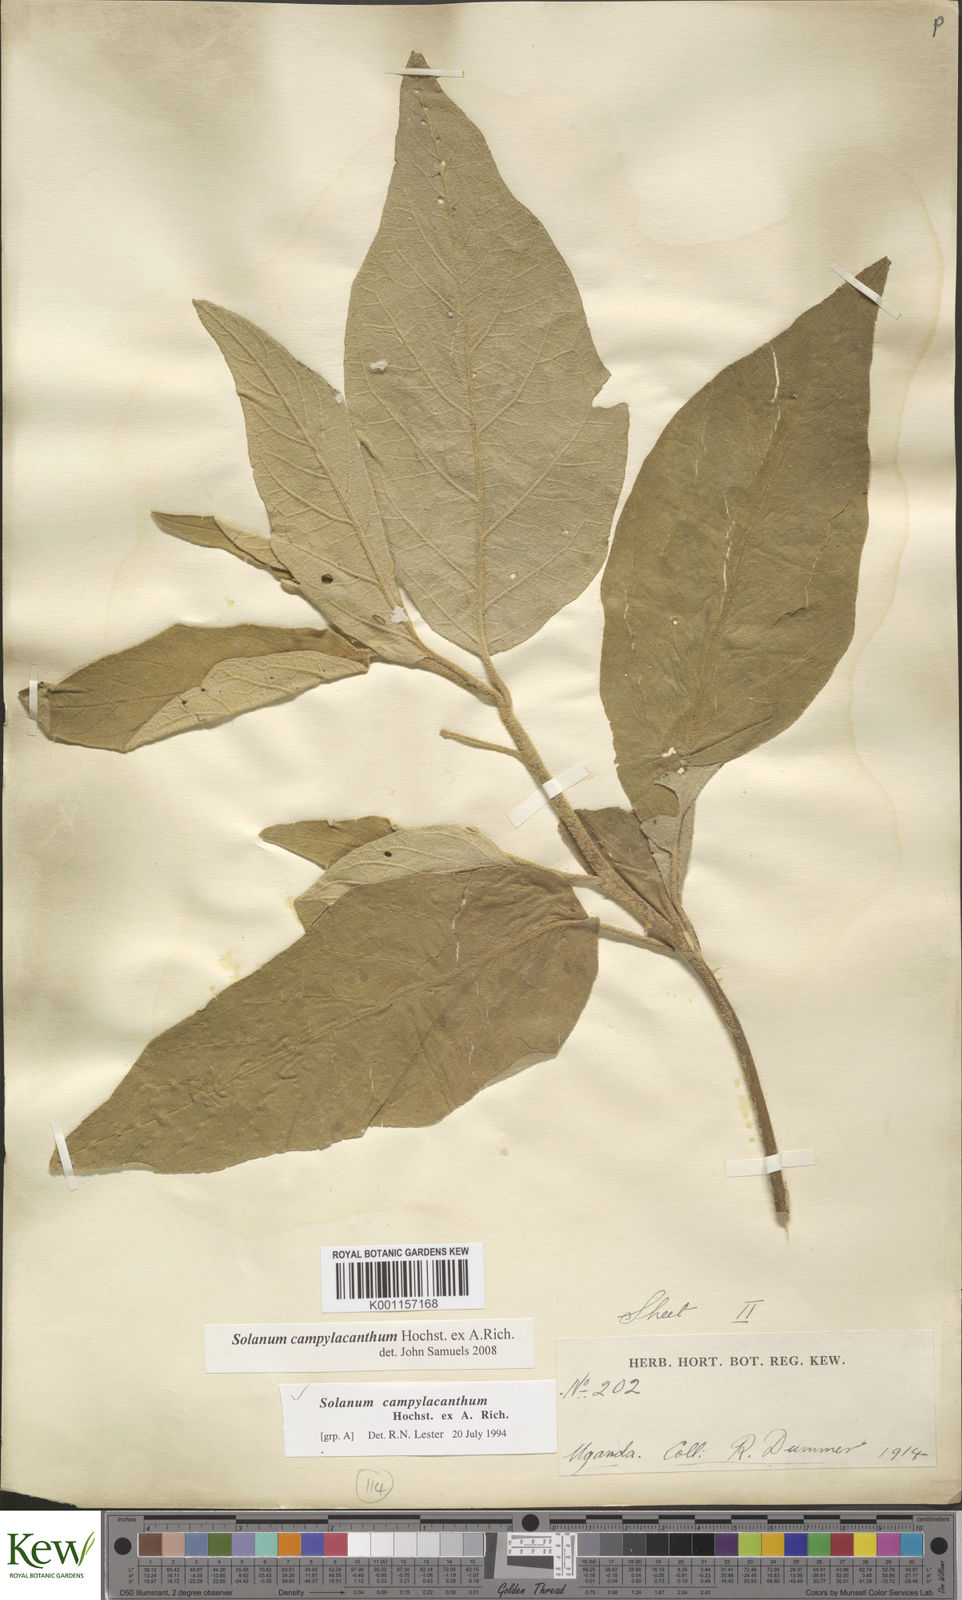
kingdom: Plantae
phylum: Tracheophyta
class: Magnoliopsida
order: Solanales
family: Solanaceae
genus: Solanum
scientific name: Solanum campylacanthum
